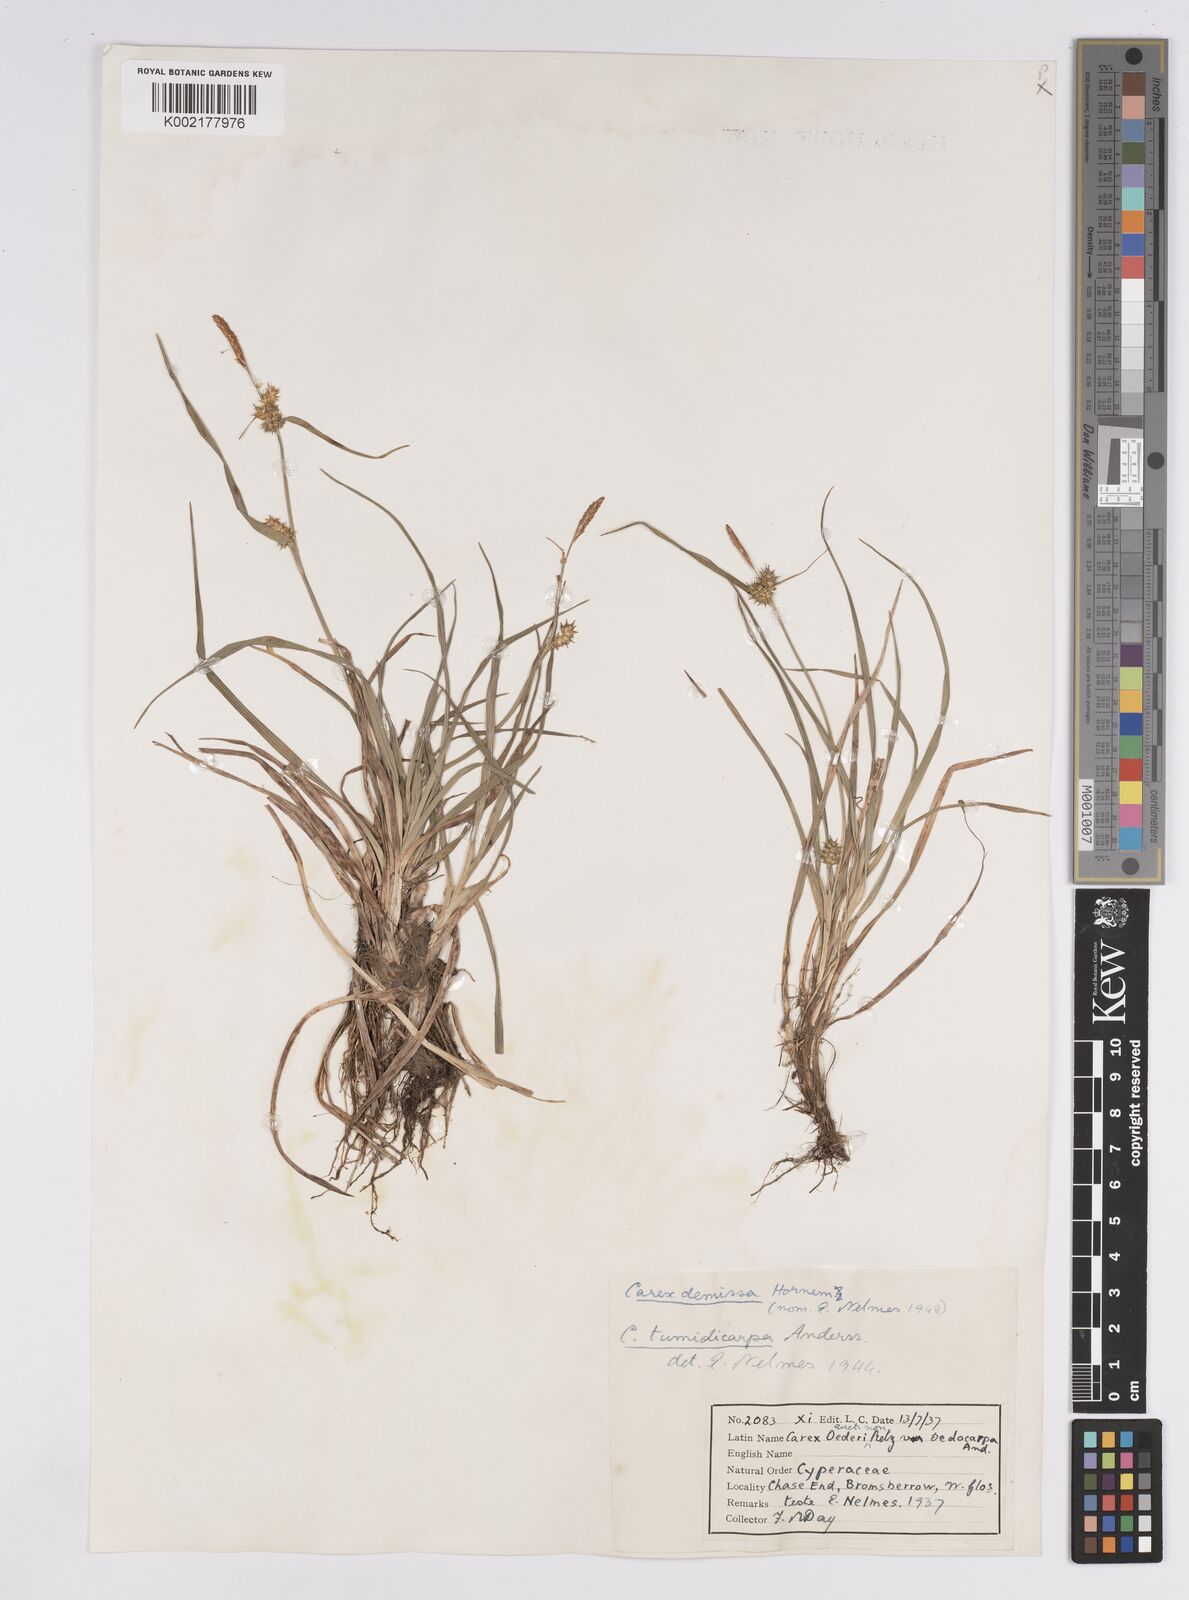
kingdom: Plantae
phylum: Tracheophyta
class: Liliopsida
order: Poales
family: Cyperaceae
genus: Carex
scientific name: Carex demissa
